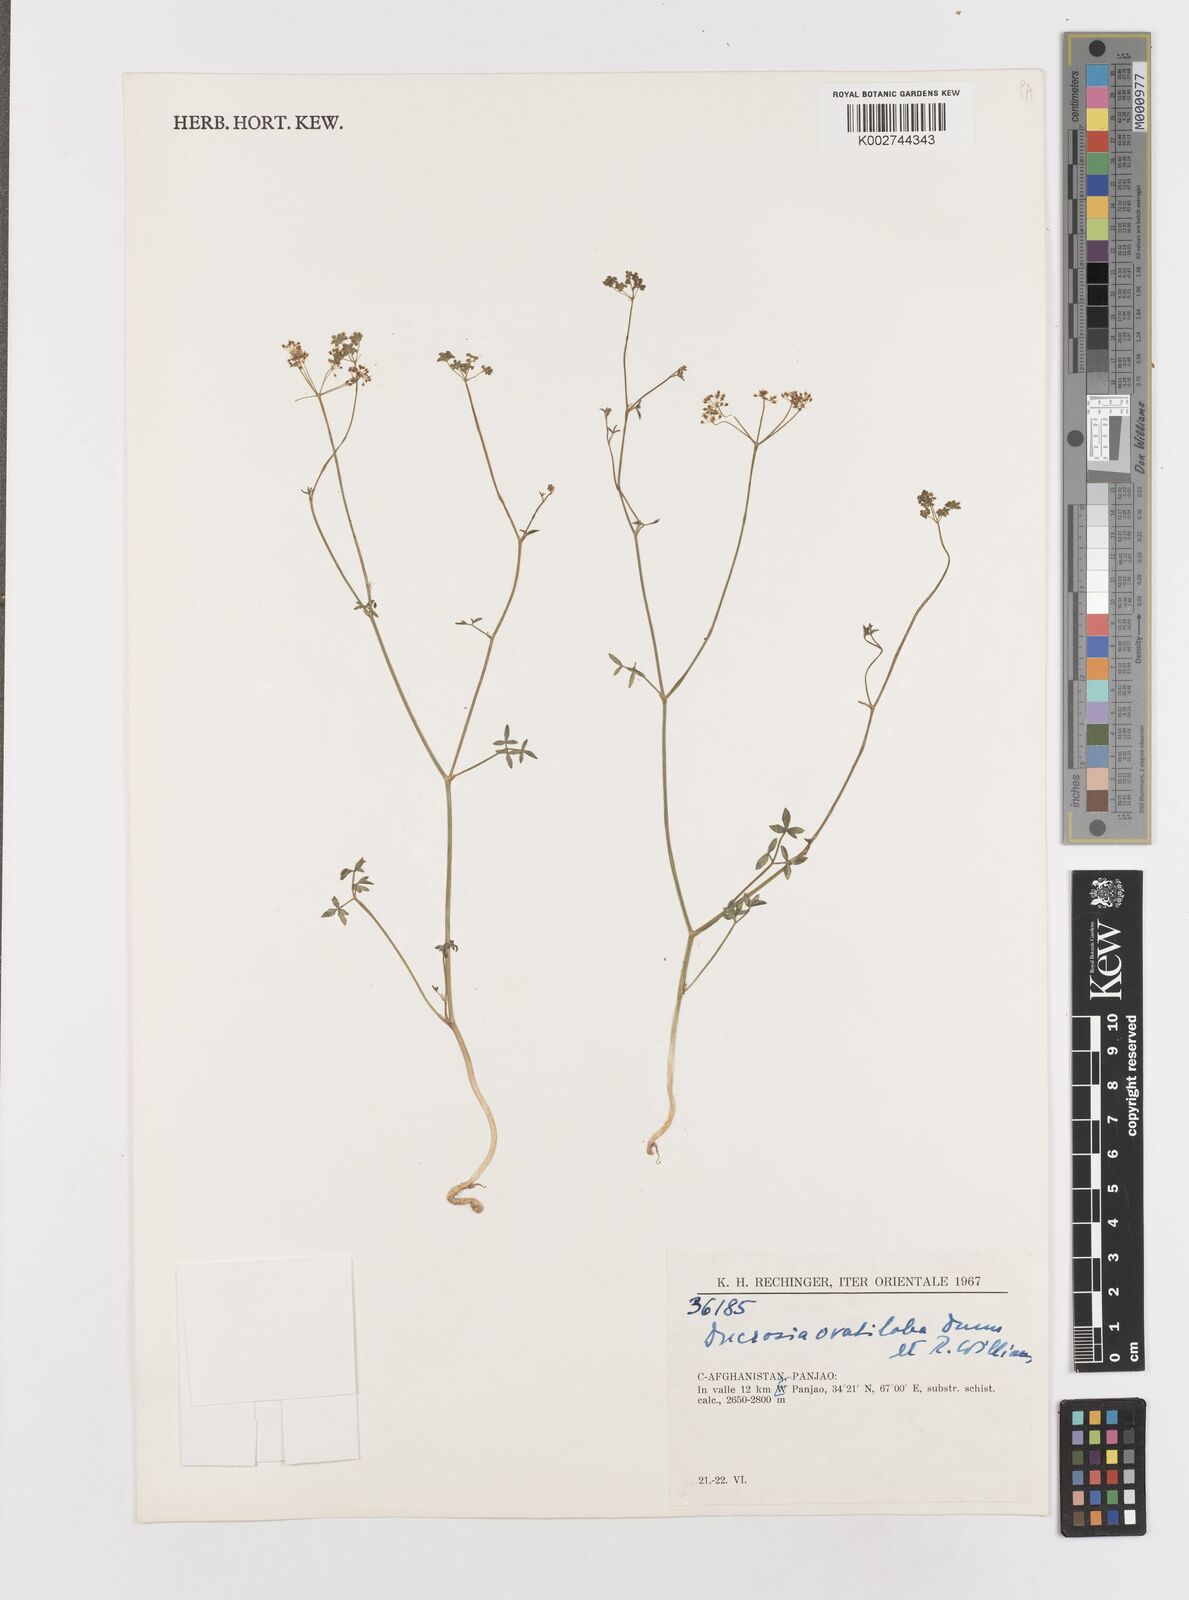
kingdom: Plantae
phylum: Tracheophyta
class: Magnoliopsida
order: Apiales
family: Apiaceae
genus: Tricholaser
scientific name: Tricholaser ovatilobum
